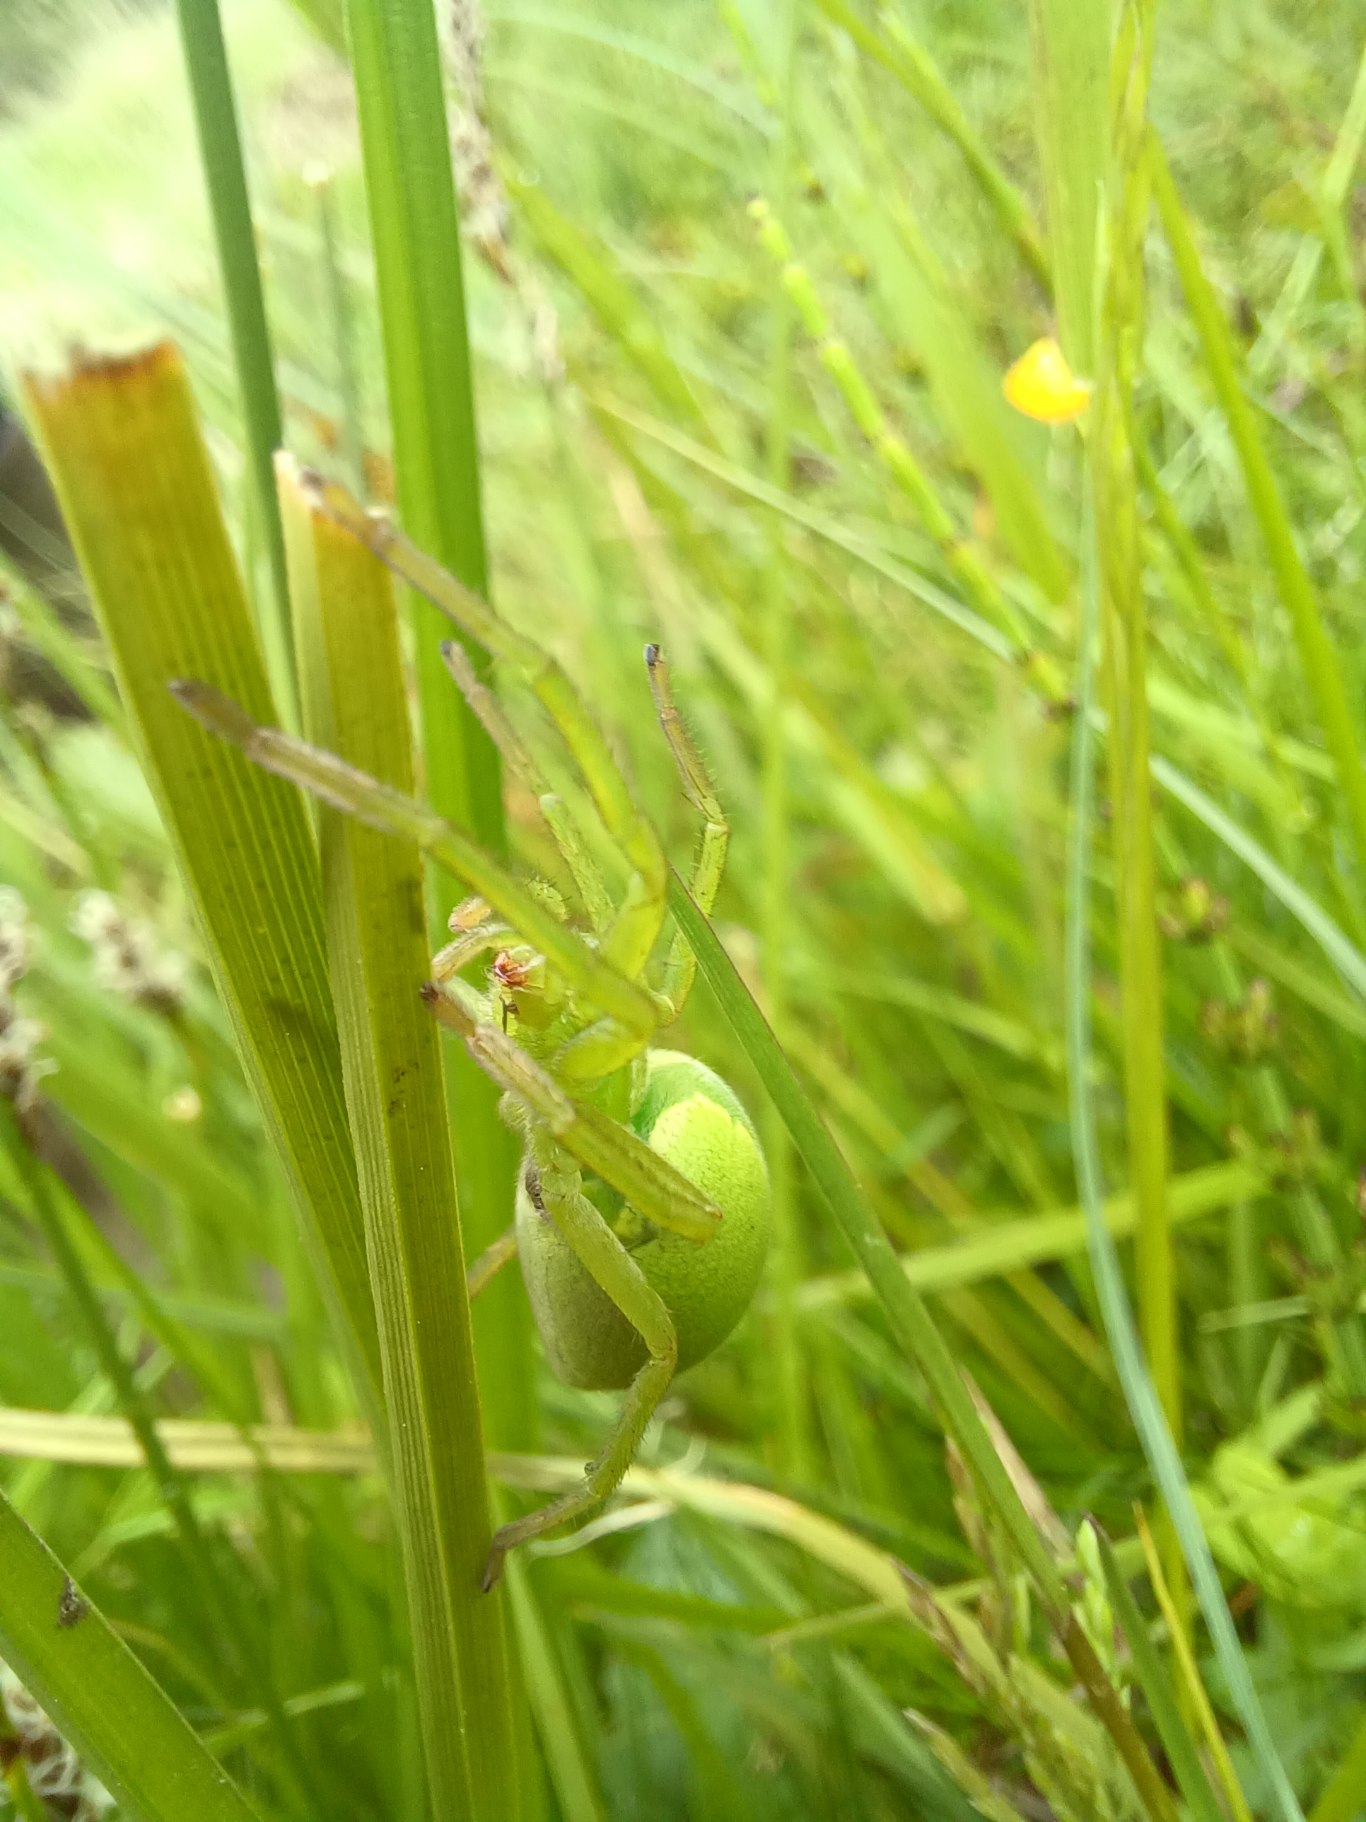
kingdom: Animalia
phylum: Arthropoda
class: Arachnida
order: Araneae
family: Sparassidae
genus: Micrommata
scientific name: Micrommata virescens
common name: Smaragdedderkop
